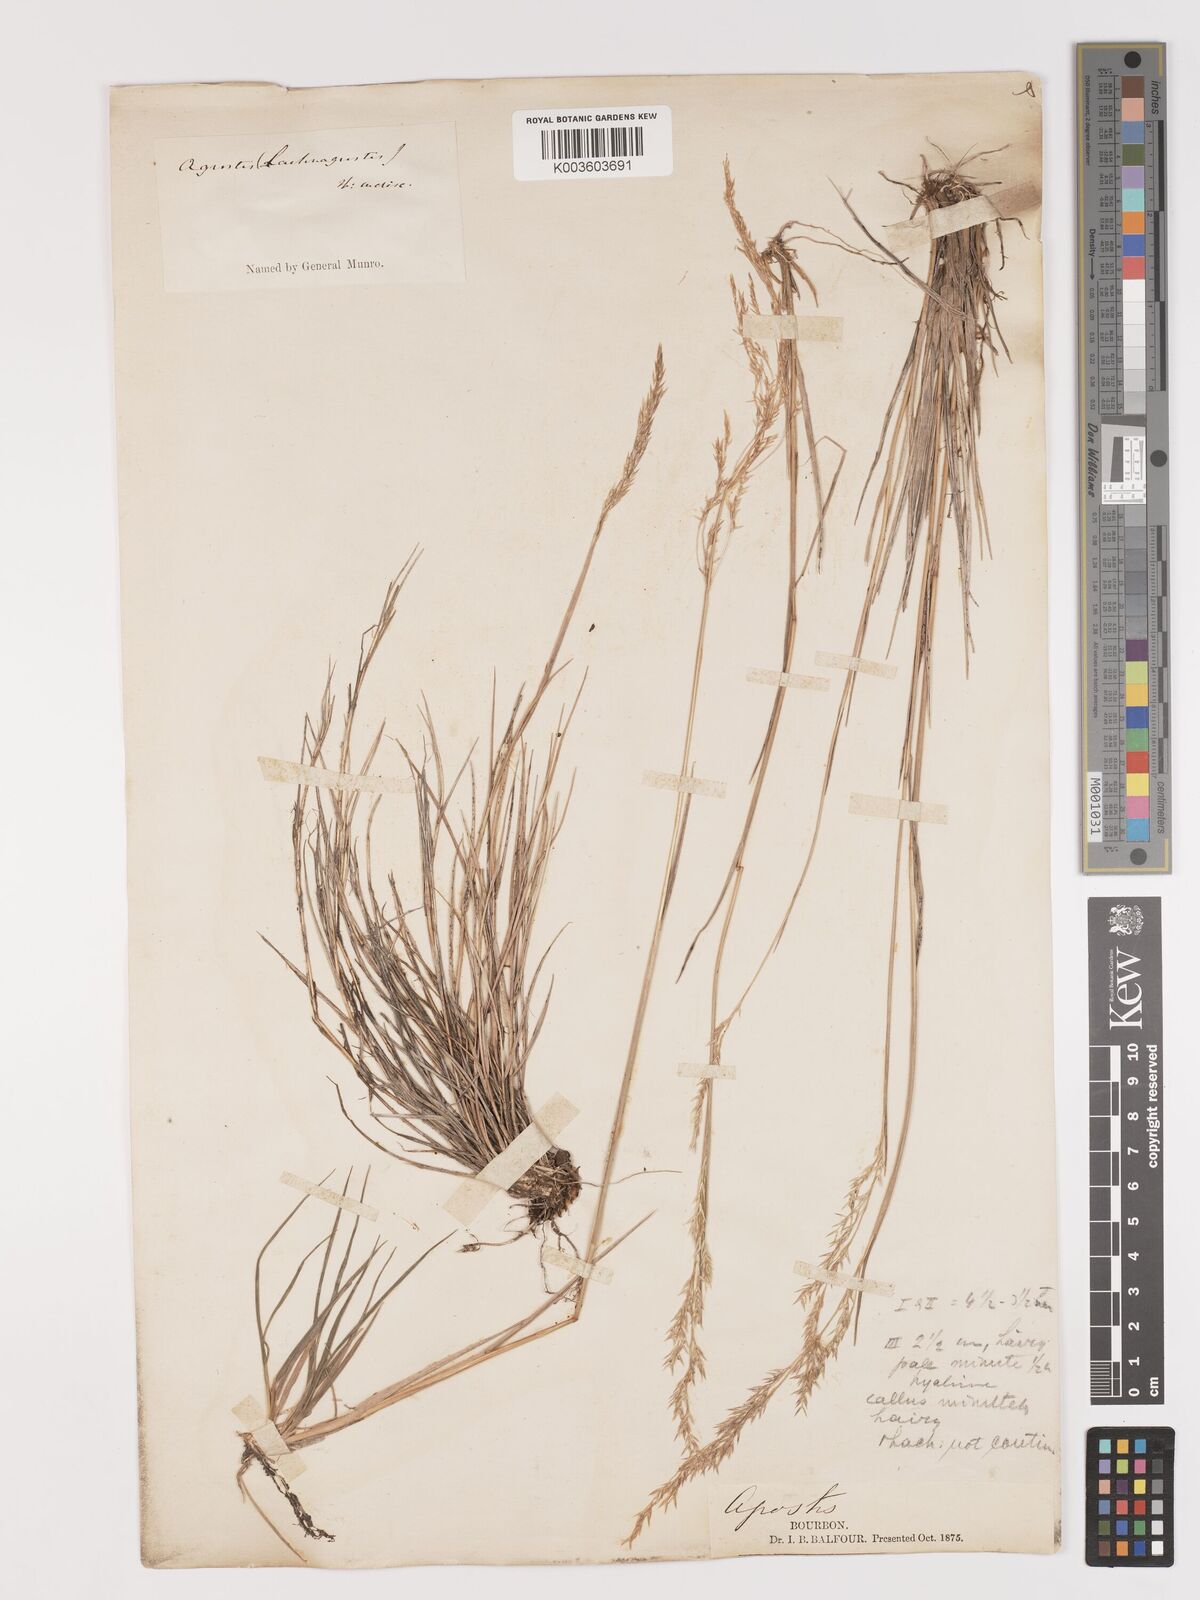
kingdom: Plantae
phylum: Tracheophyta
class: Liliopsida
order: Poales
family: Poaceae
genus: Agrostis
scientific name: Agrostis salaziensis
